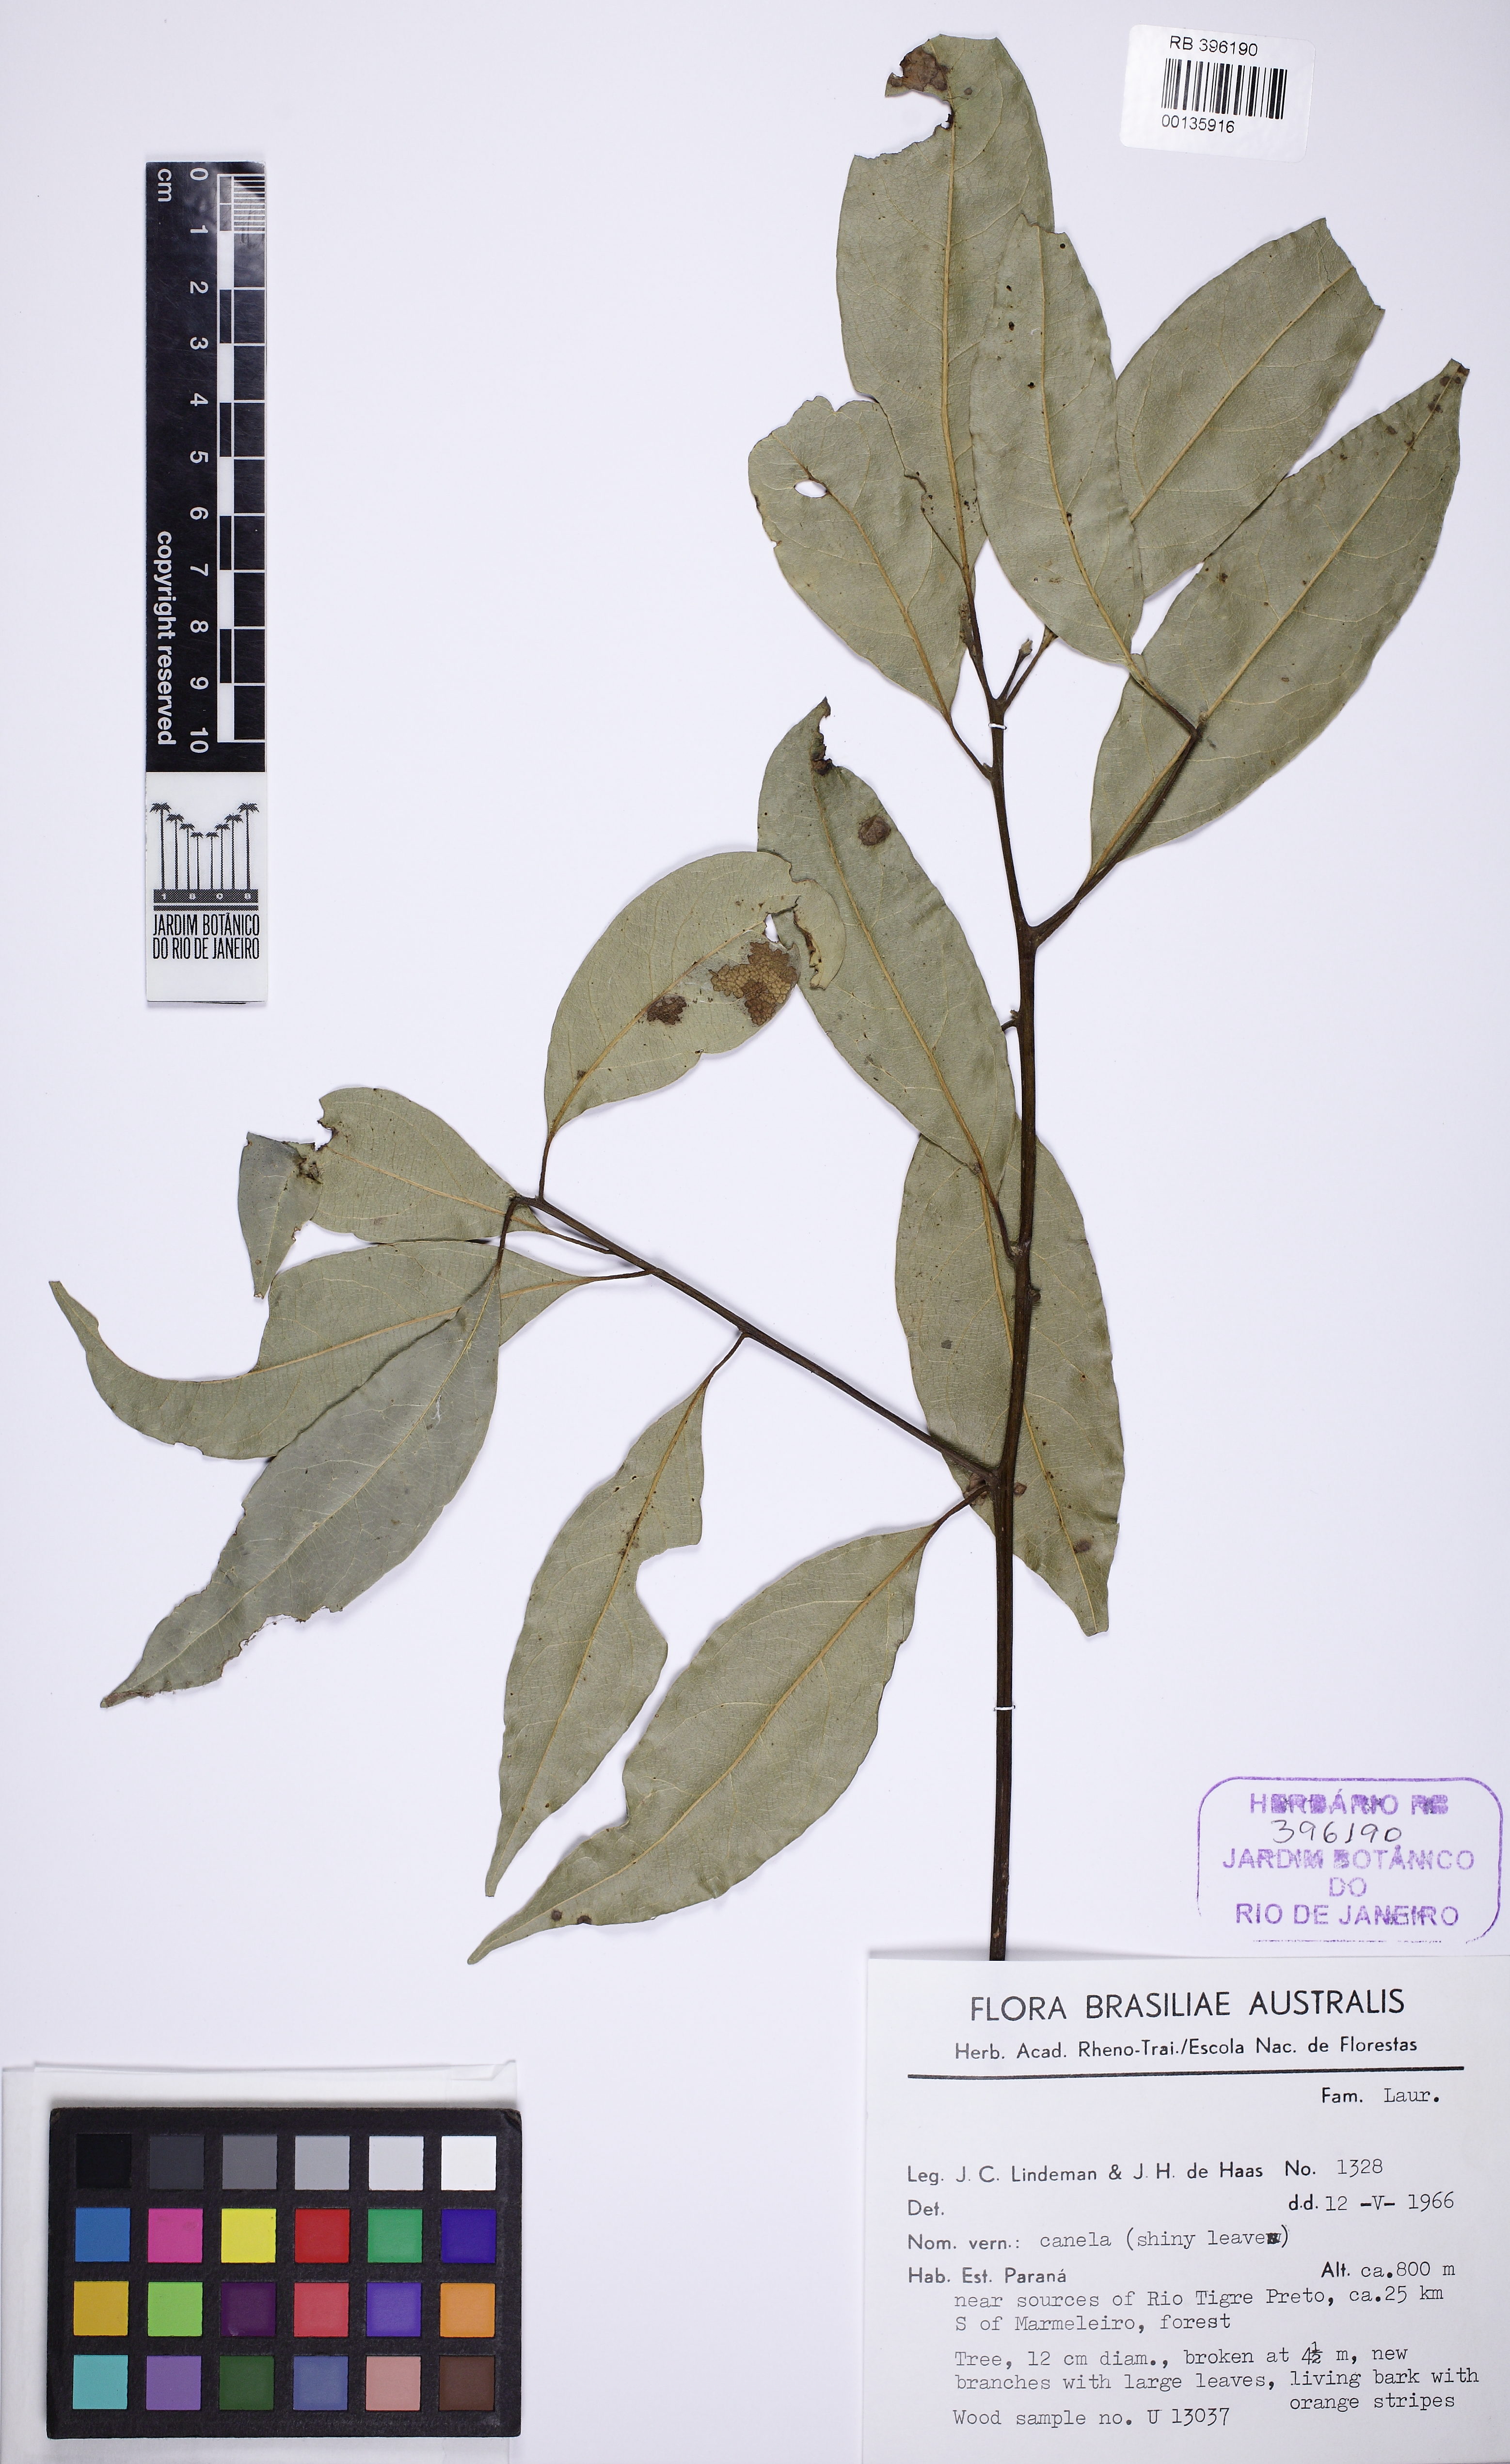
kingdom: Plantae
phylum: Tracheophyta
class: Magnoliopsida
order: Laurales
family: Lauraceae
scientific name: Lauraceae
